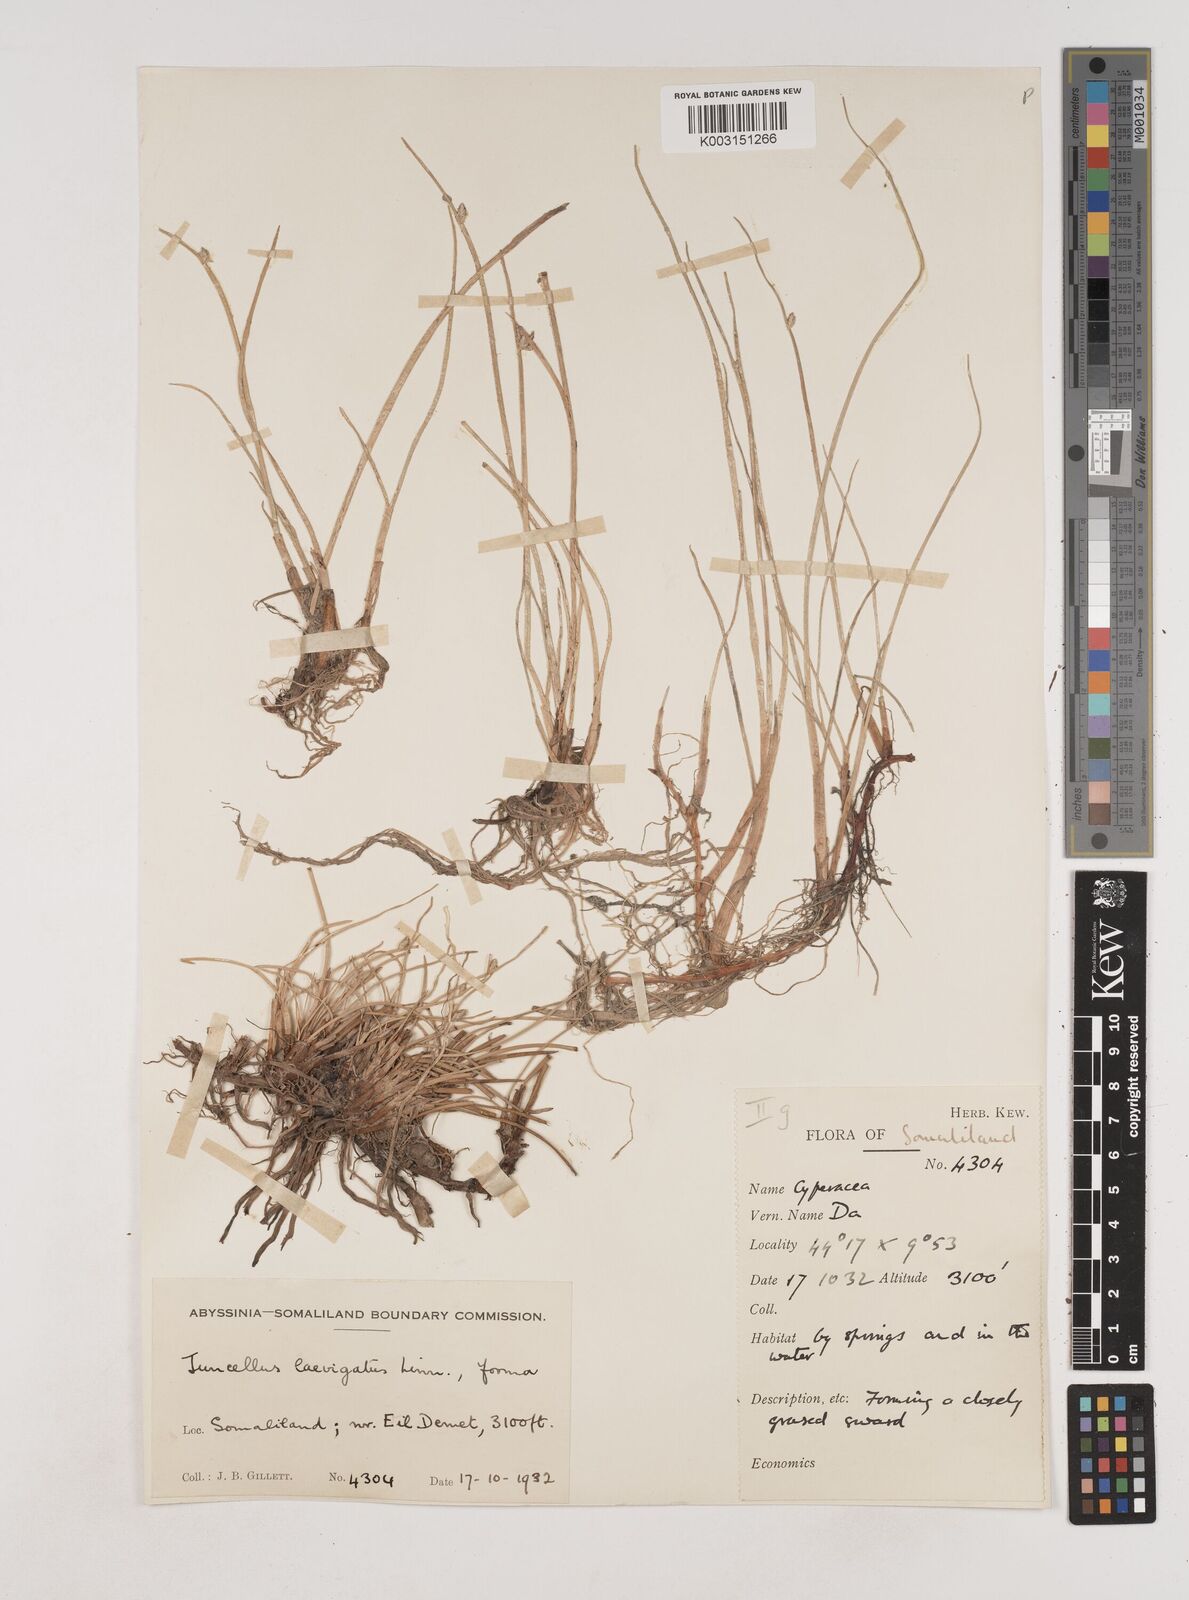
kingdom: Plantae
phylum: Tracheophyta
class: Liliopsida
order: Poales
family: Cyperaceae
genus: Cyperus
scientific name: Cyperus laevigatus
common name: Smooth flat sedge
